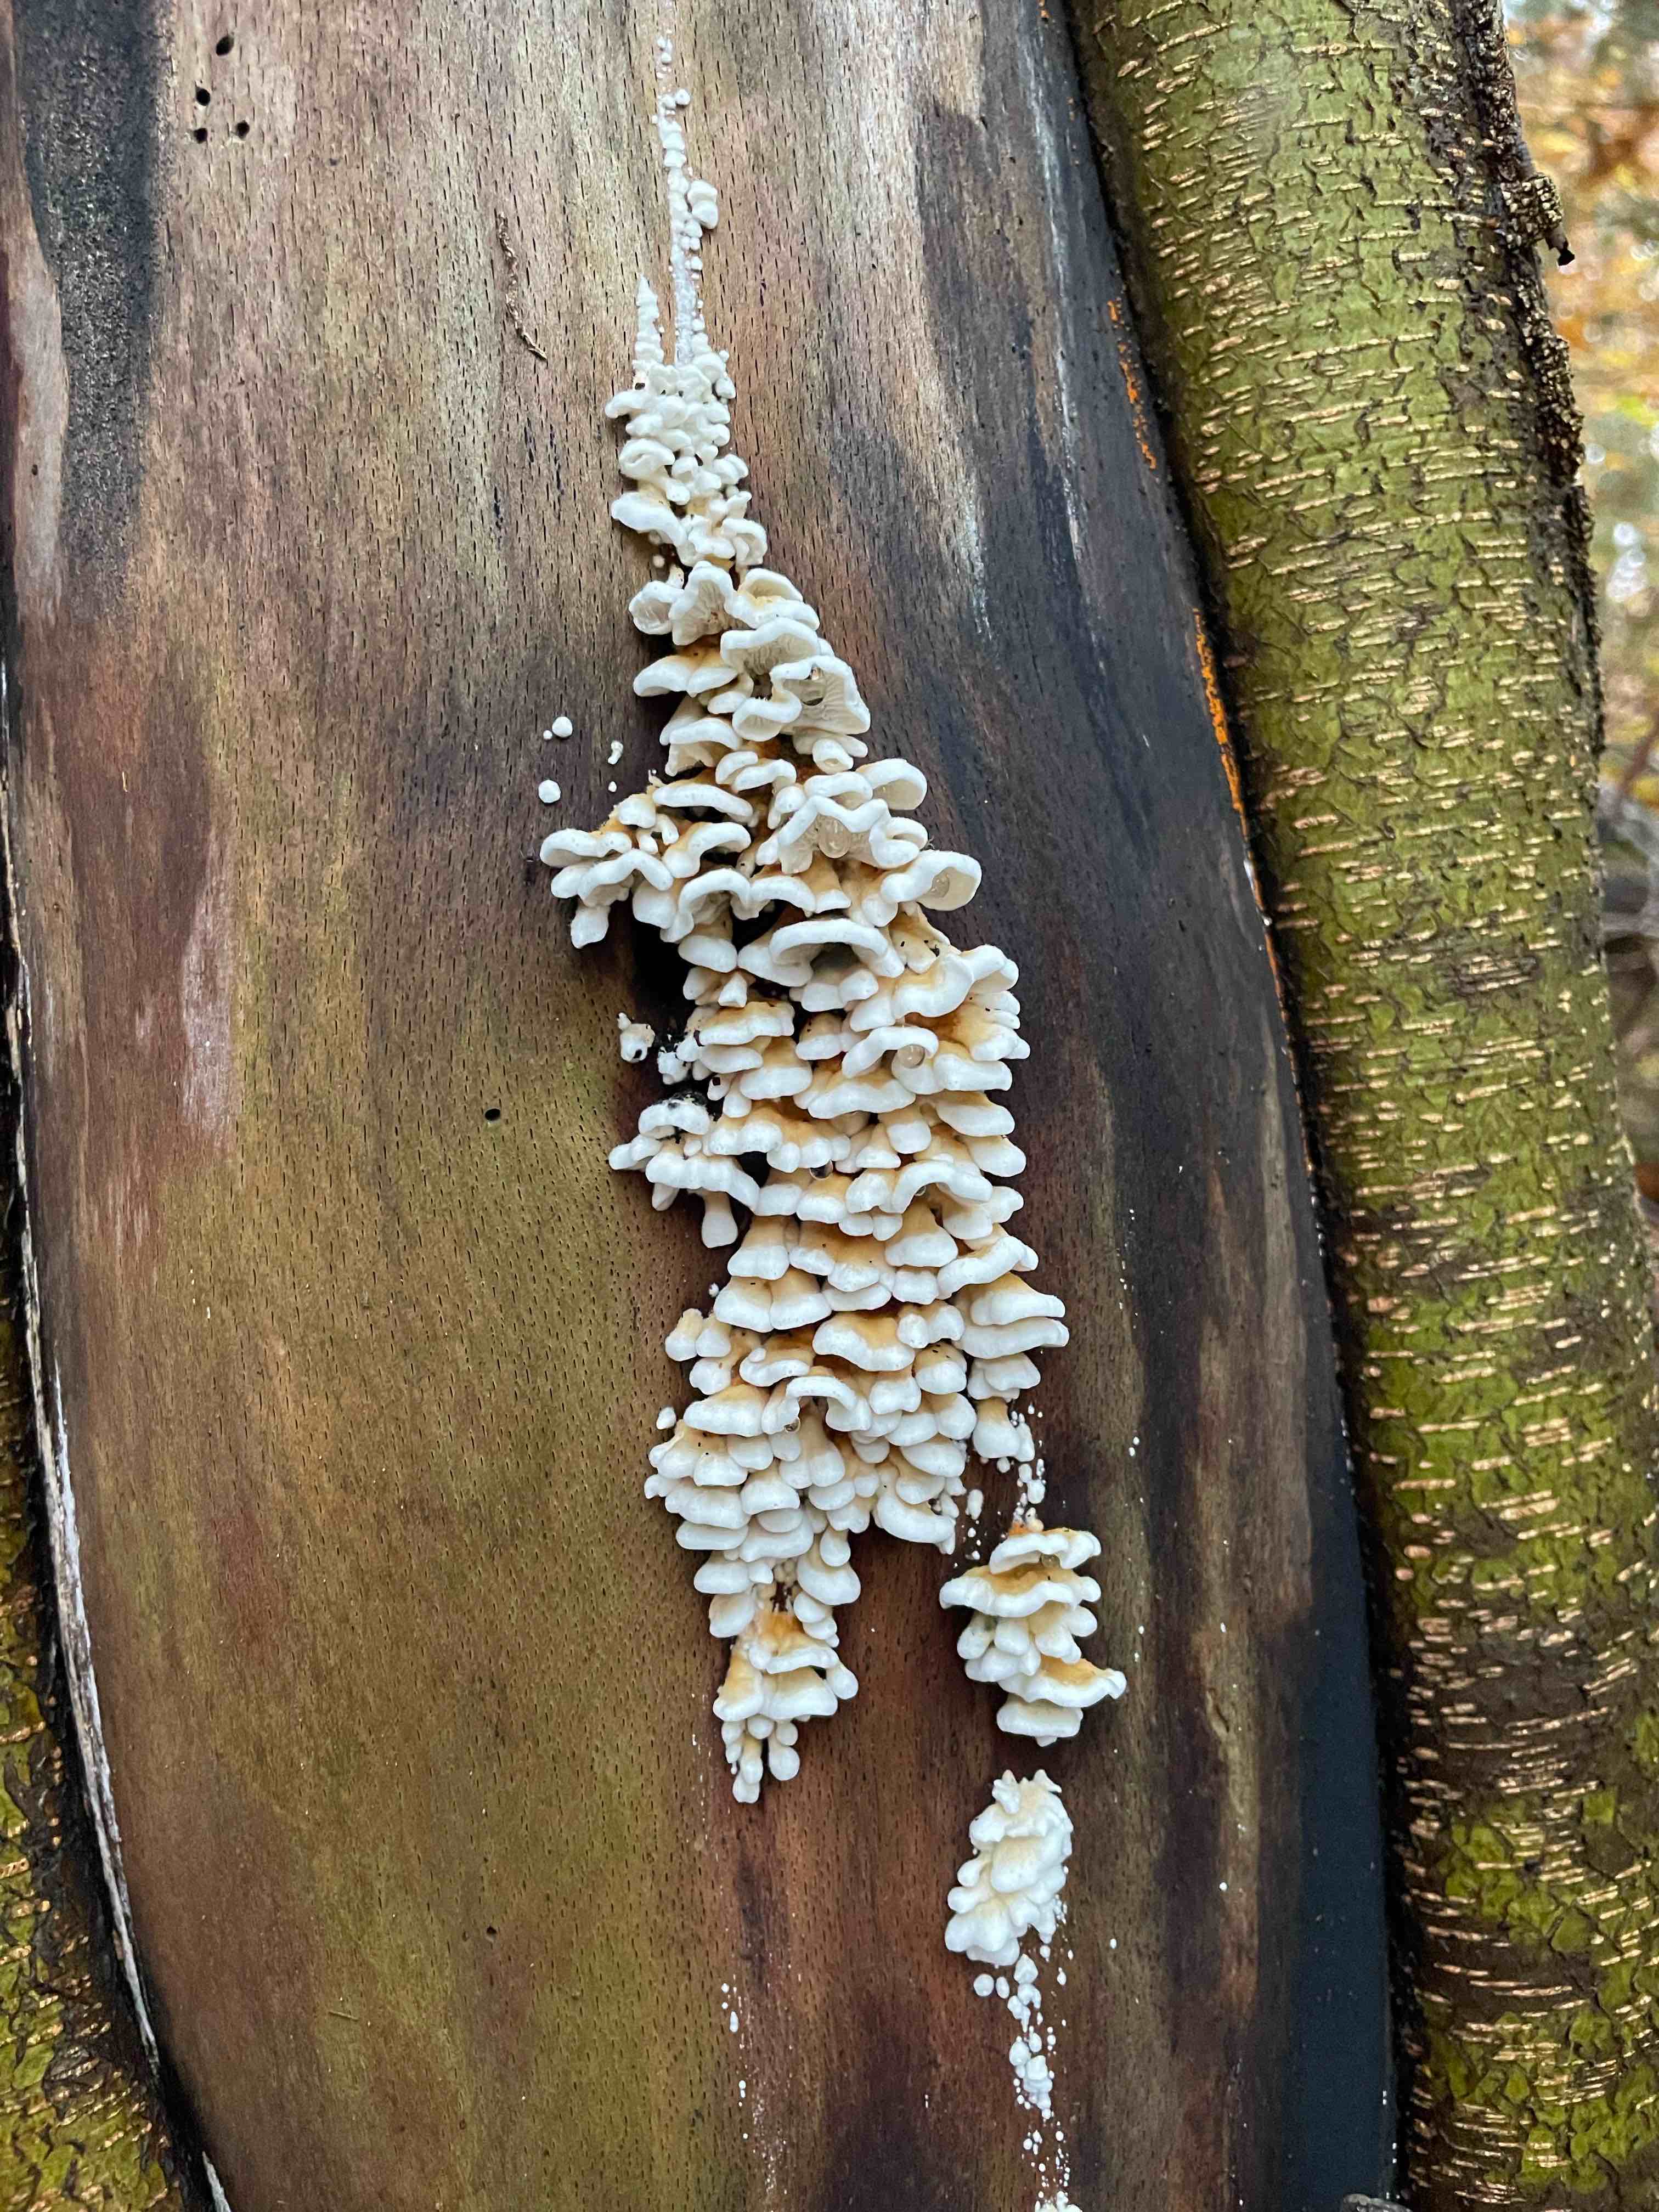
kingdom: Fungi
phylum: Basidiomycota
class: Agaricomycetes
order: Amylocorticiales
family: Amylocorticiaceae
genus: Plicaturopsis
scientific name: Plicaturopsis crispa
